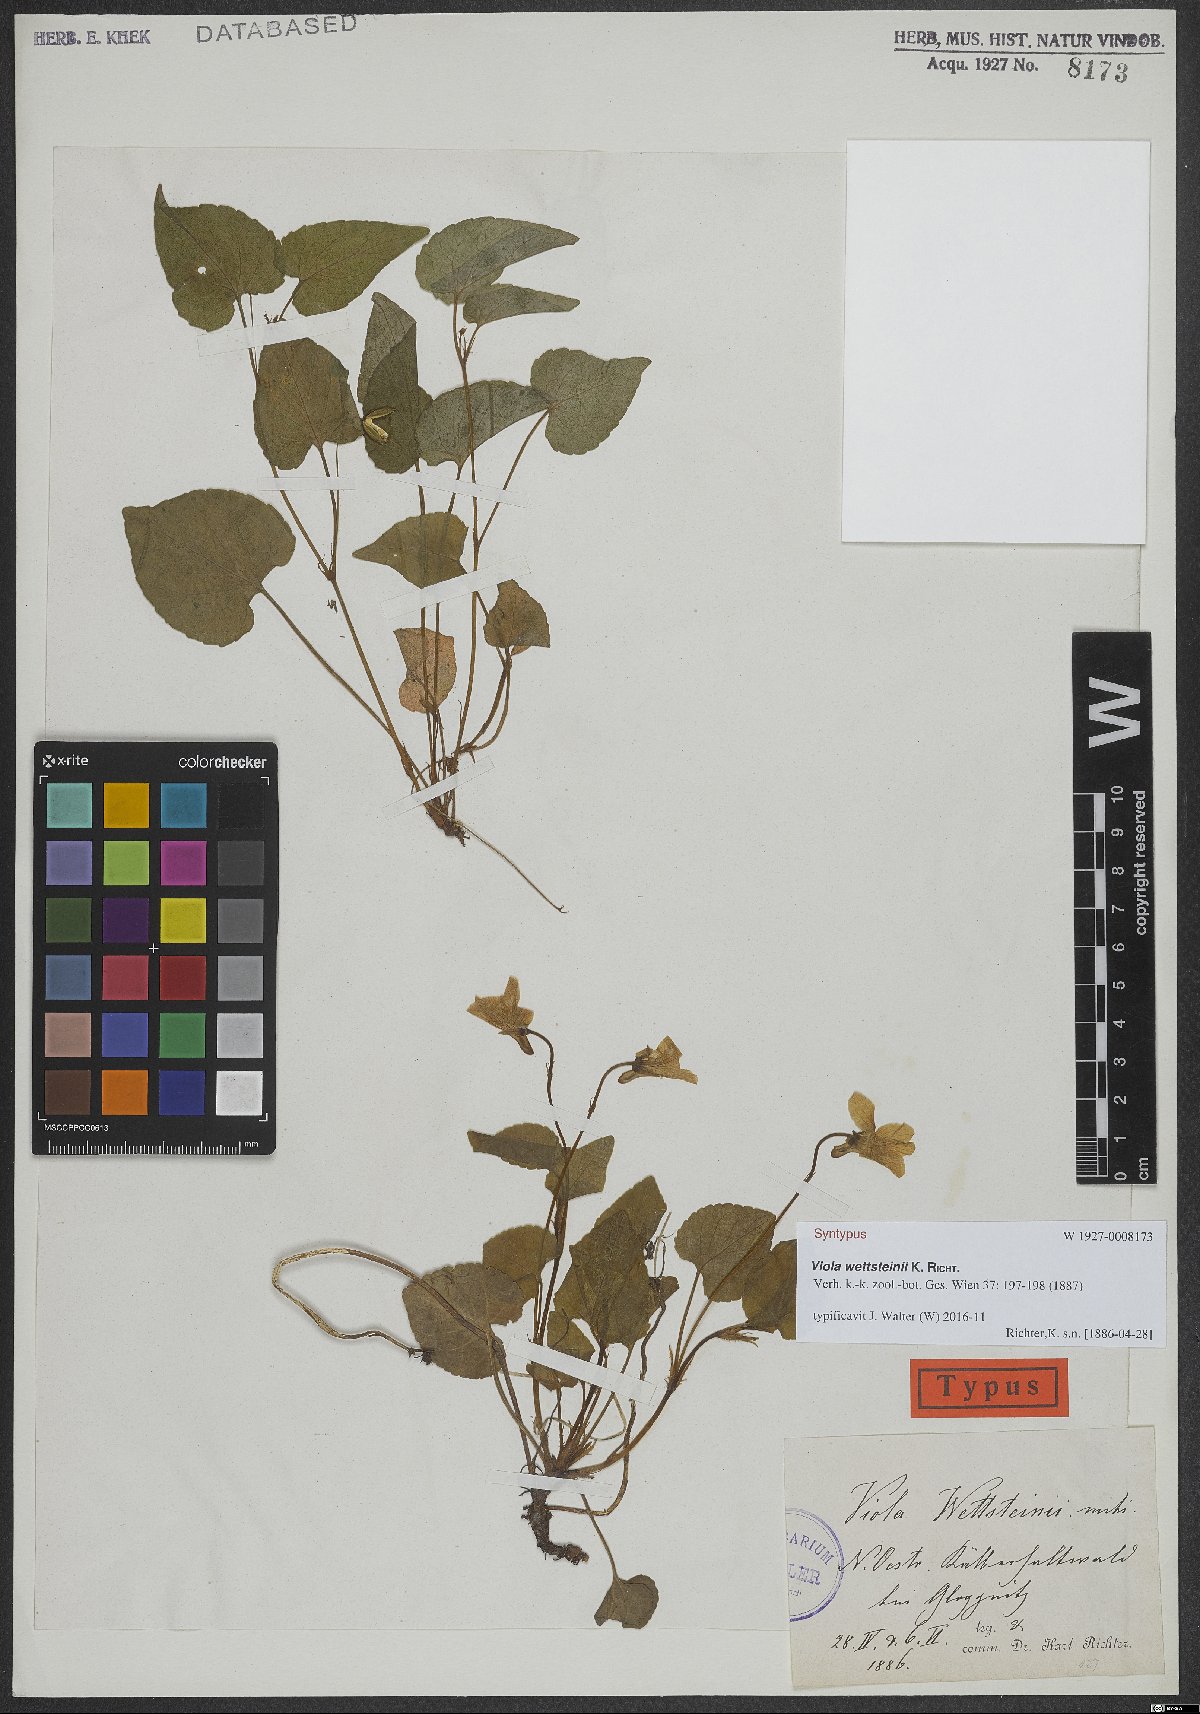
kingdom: Plantae
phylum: Tracheophyta
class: Magnoliopsida
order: Malpighiales
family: Violaceae
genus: Viola
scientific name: Viola bavarica
